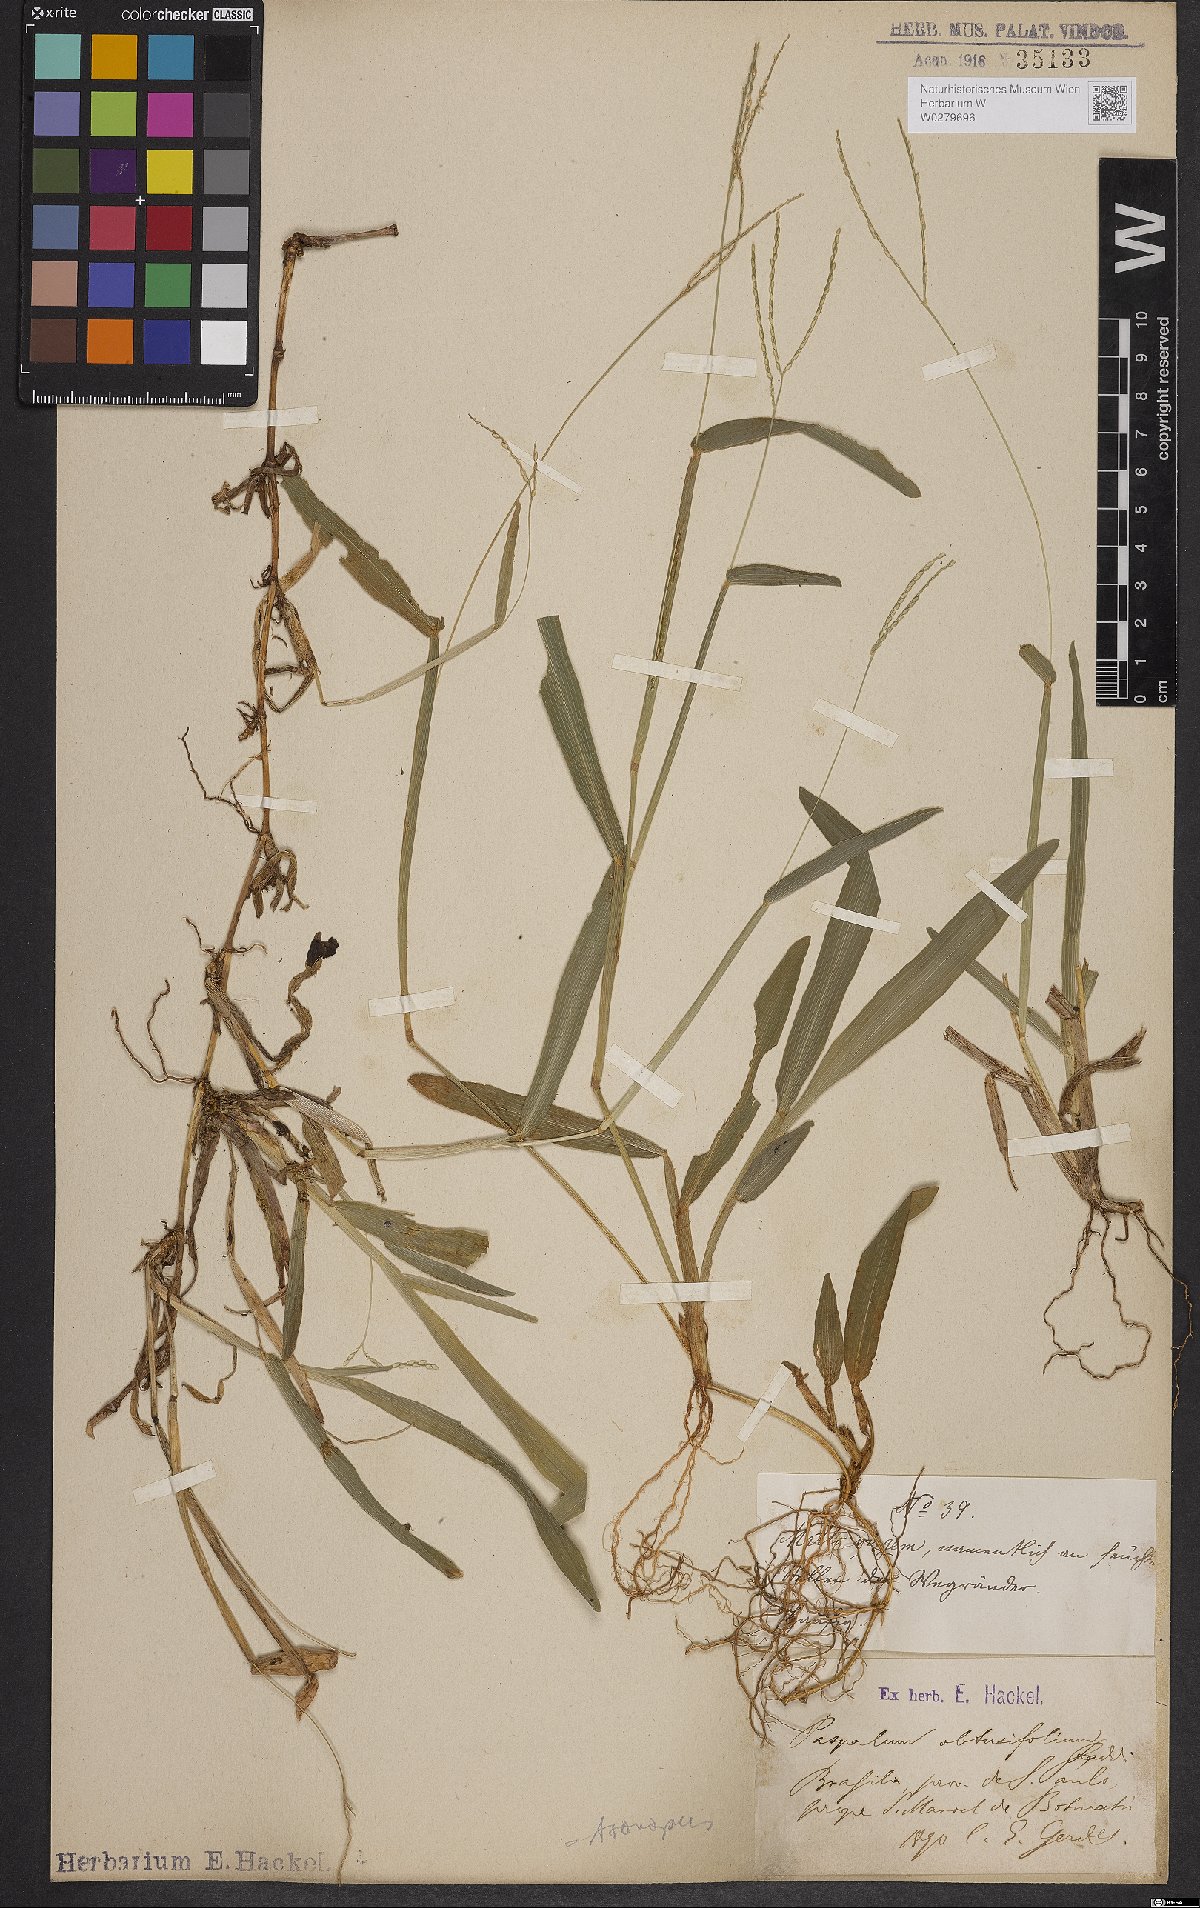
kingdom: Plantae
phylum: Tracheophyta
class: Liliopsida
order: Poales
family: Poaceae
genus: Axonopus
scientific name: Axonopus furcatus
